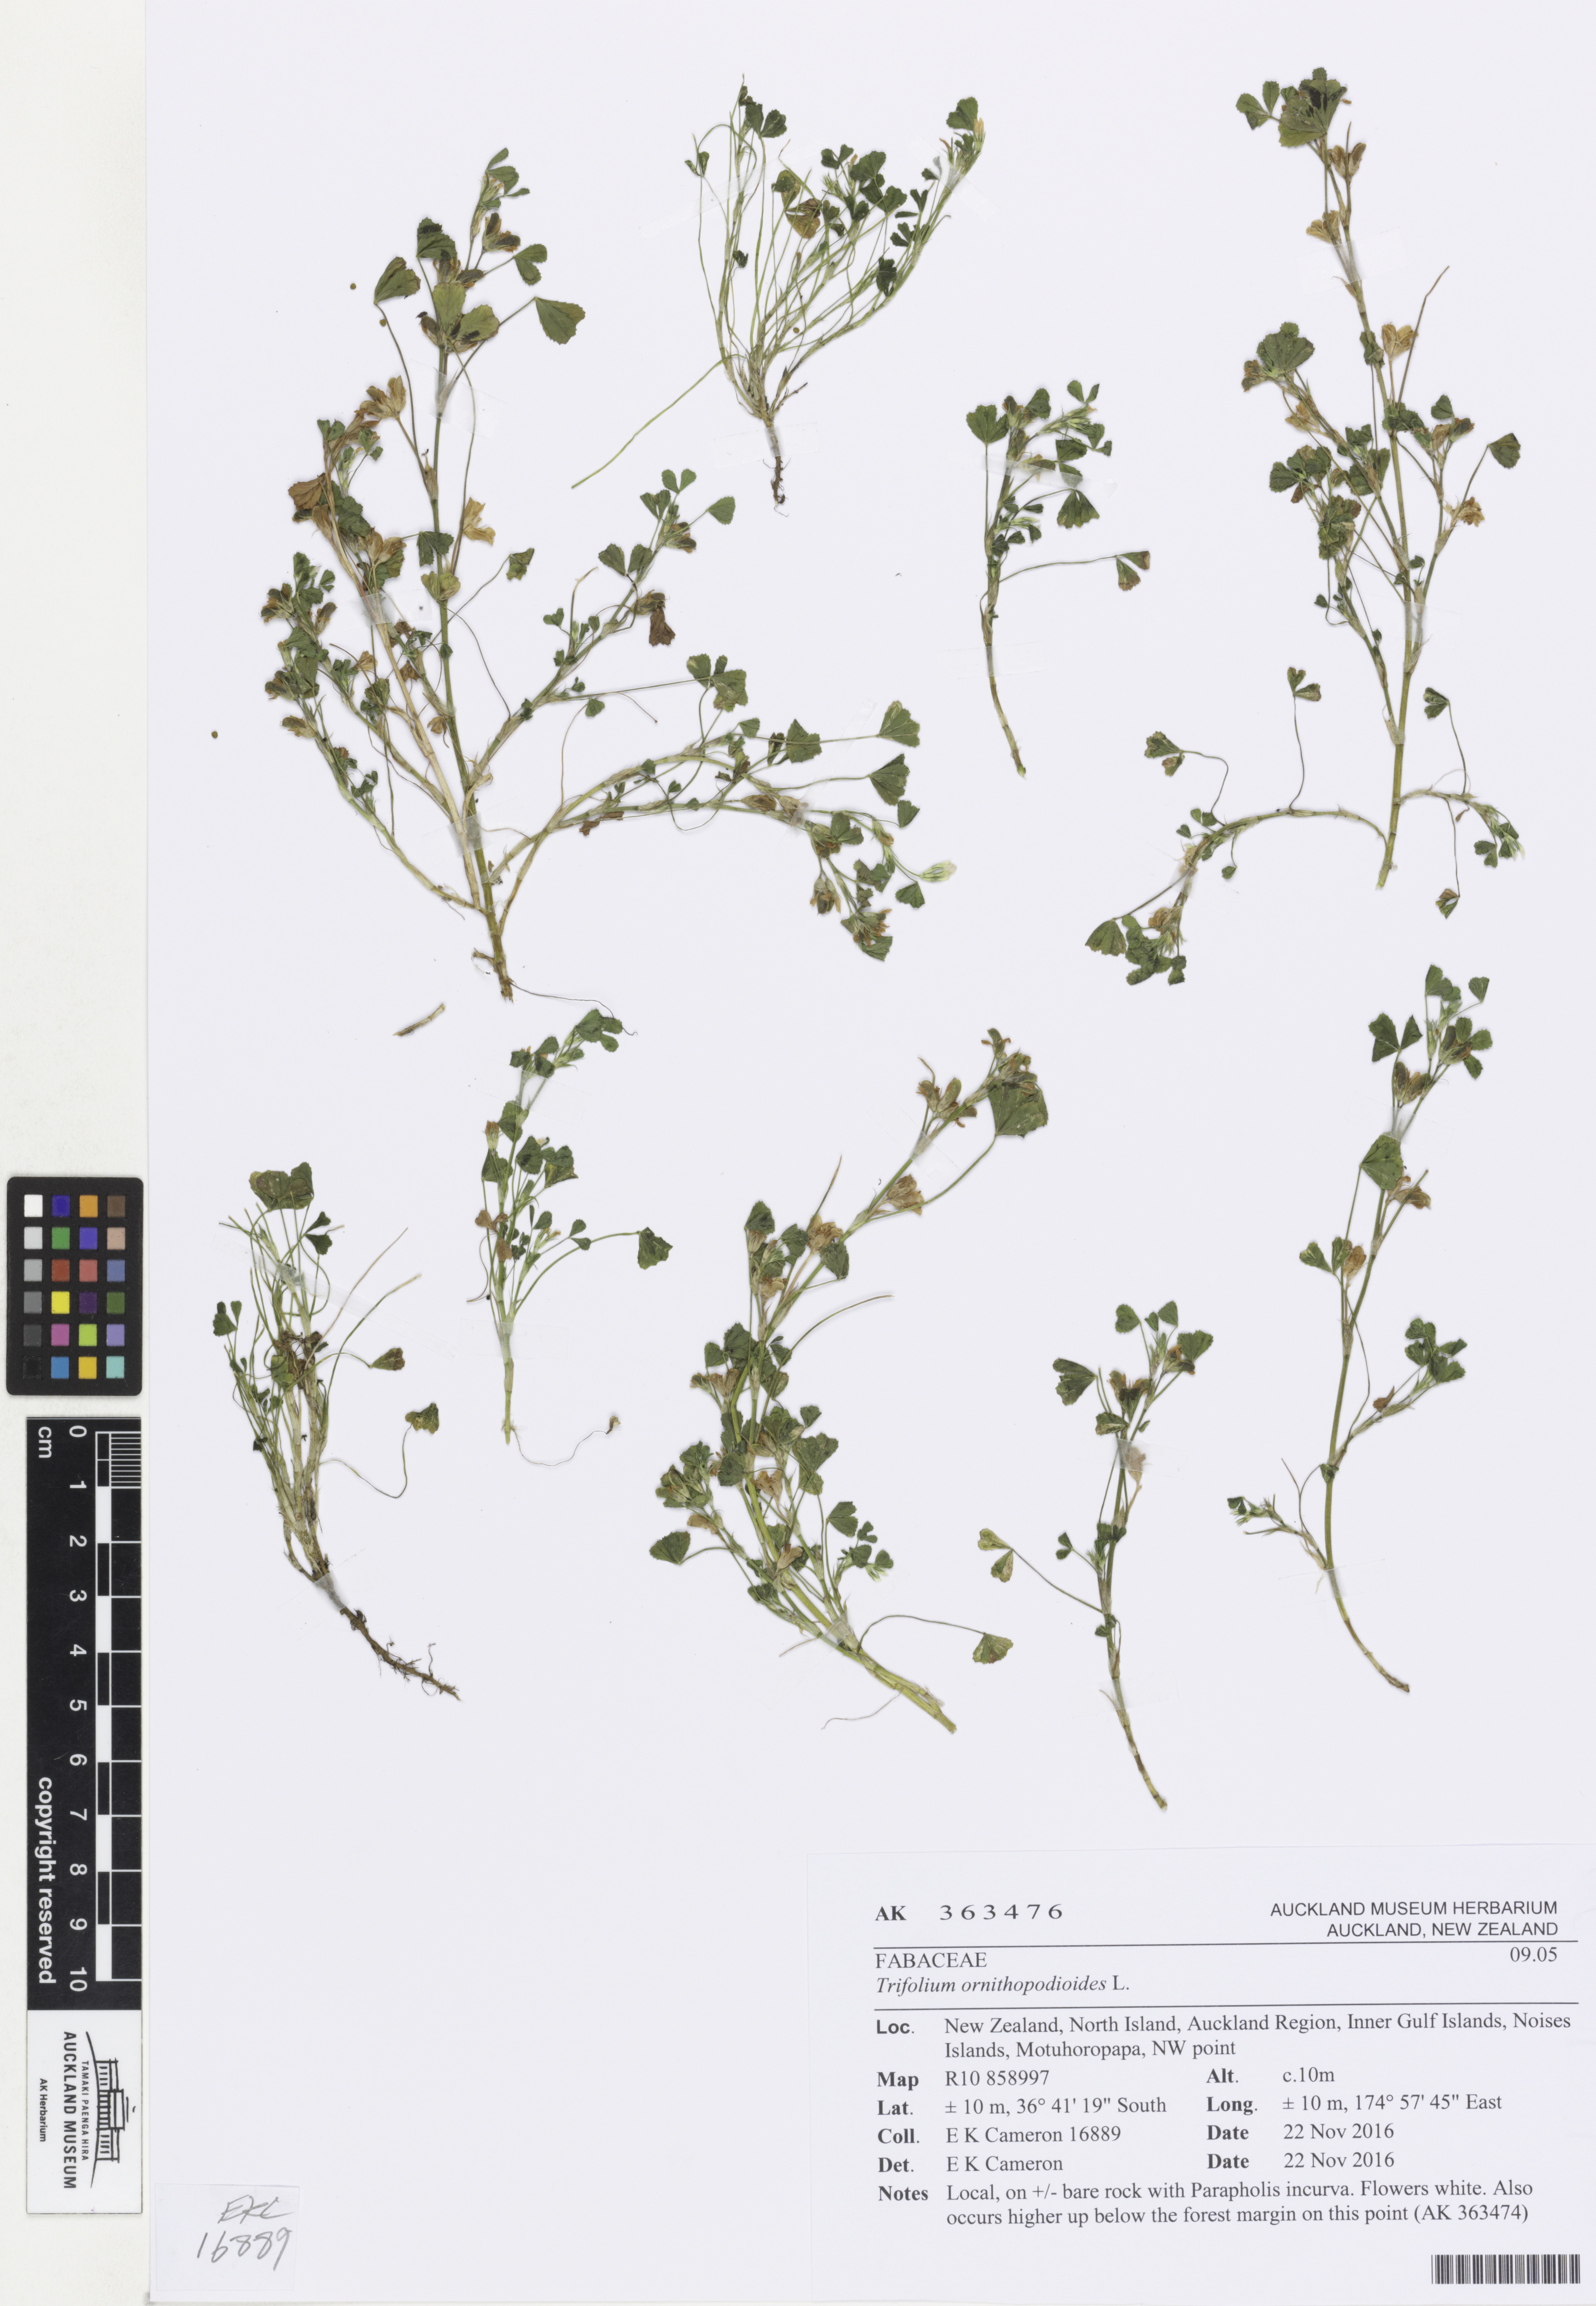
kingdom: Plantae
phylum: Tracheophyta
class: Magnoliopsida
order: Fabales
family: Fabaceae
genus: Trifolium
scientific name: Trifolium ornithopodioides
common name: Bird's-foot clover
